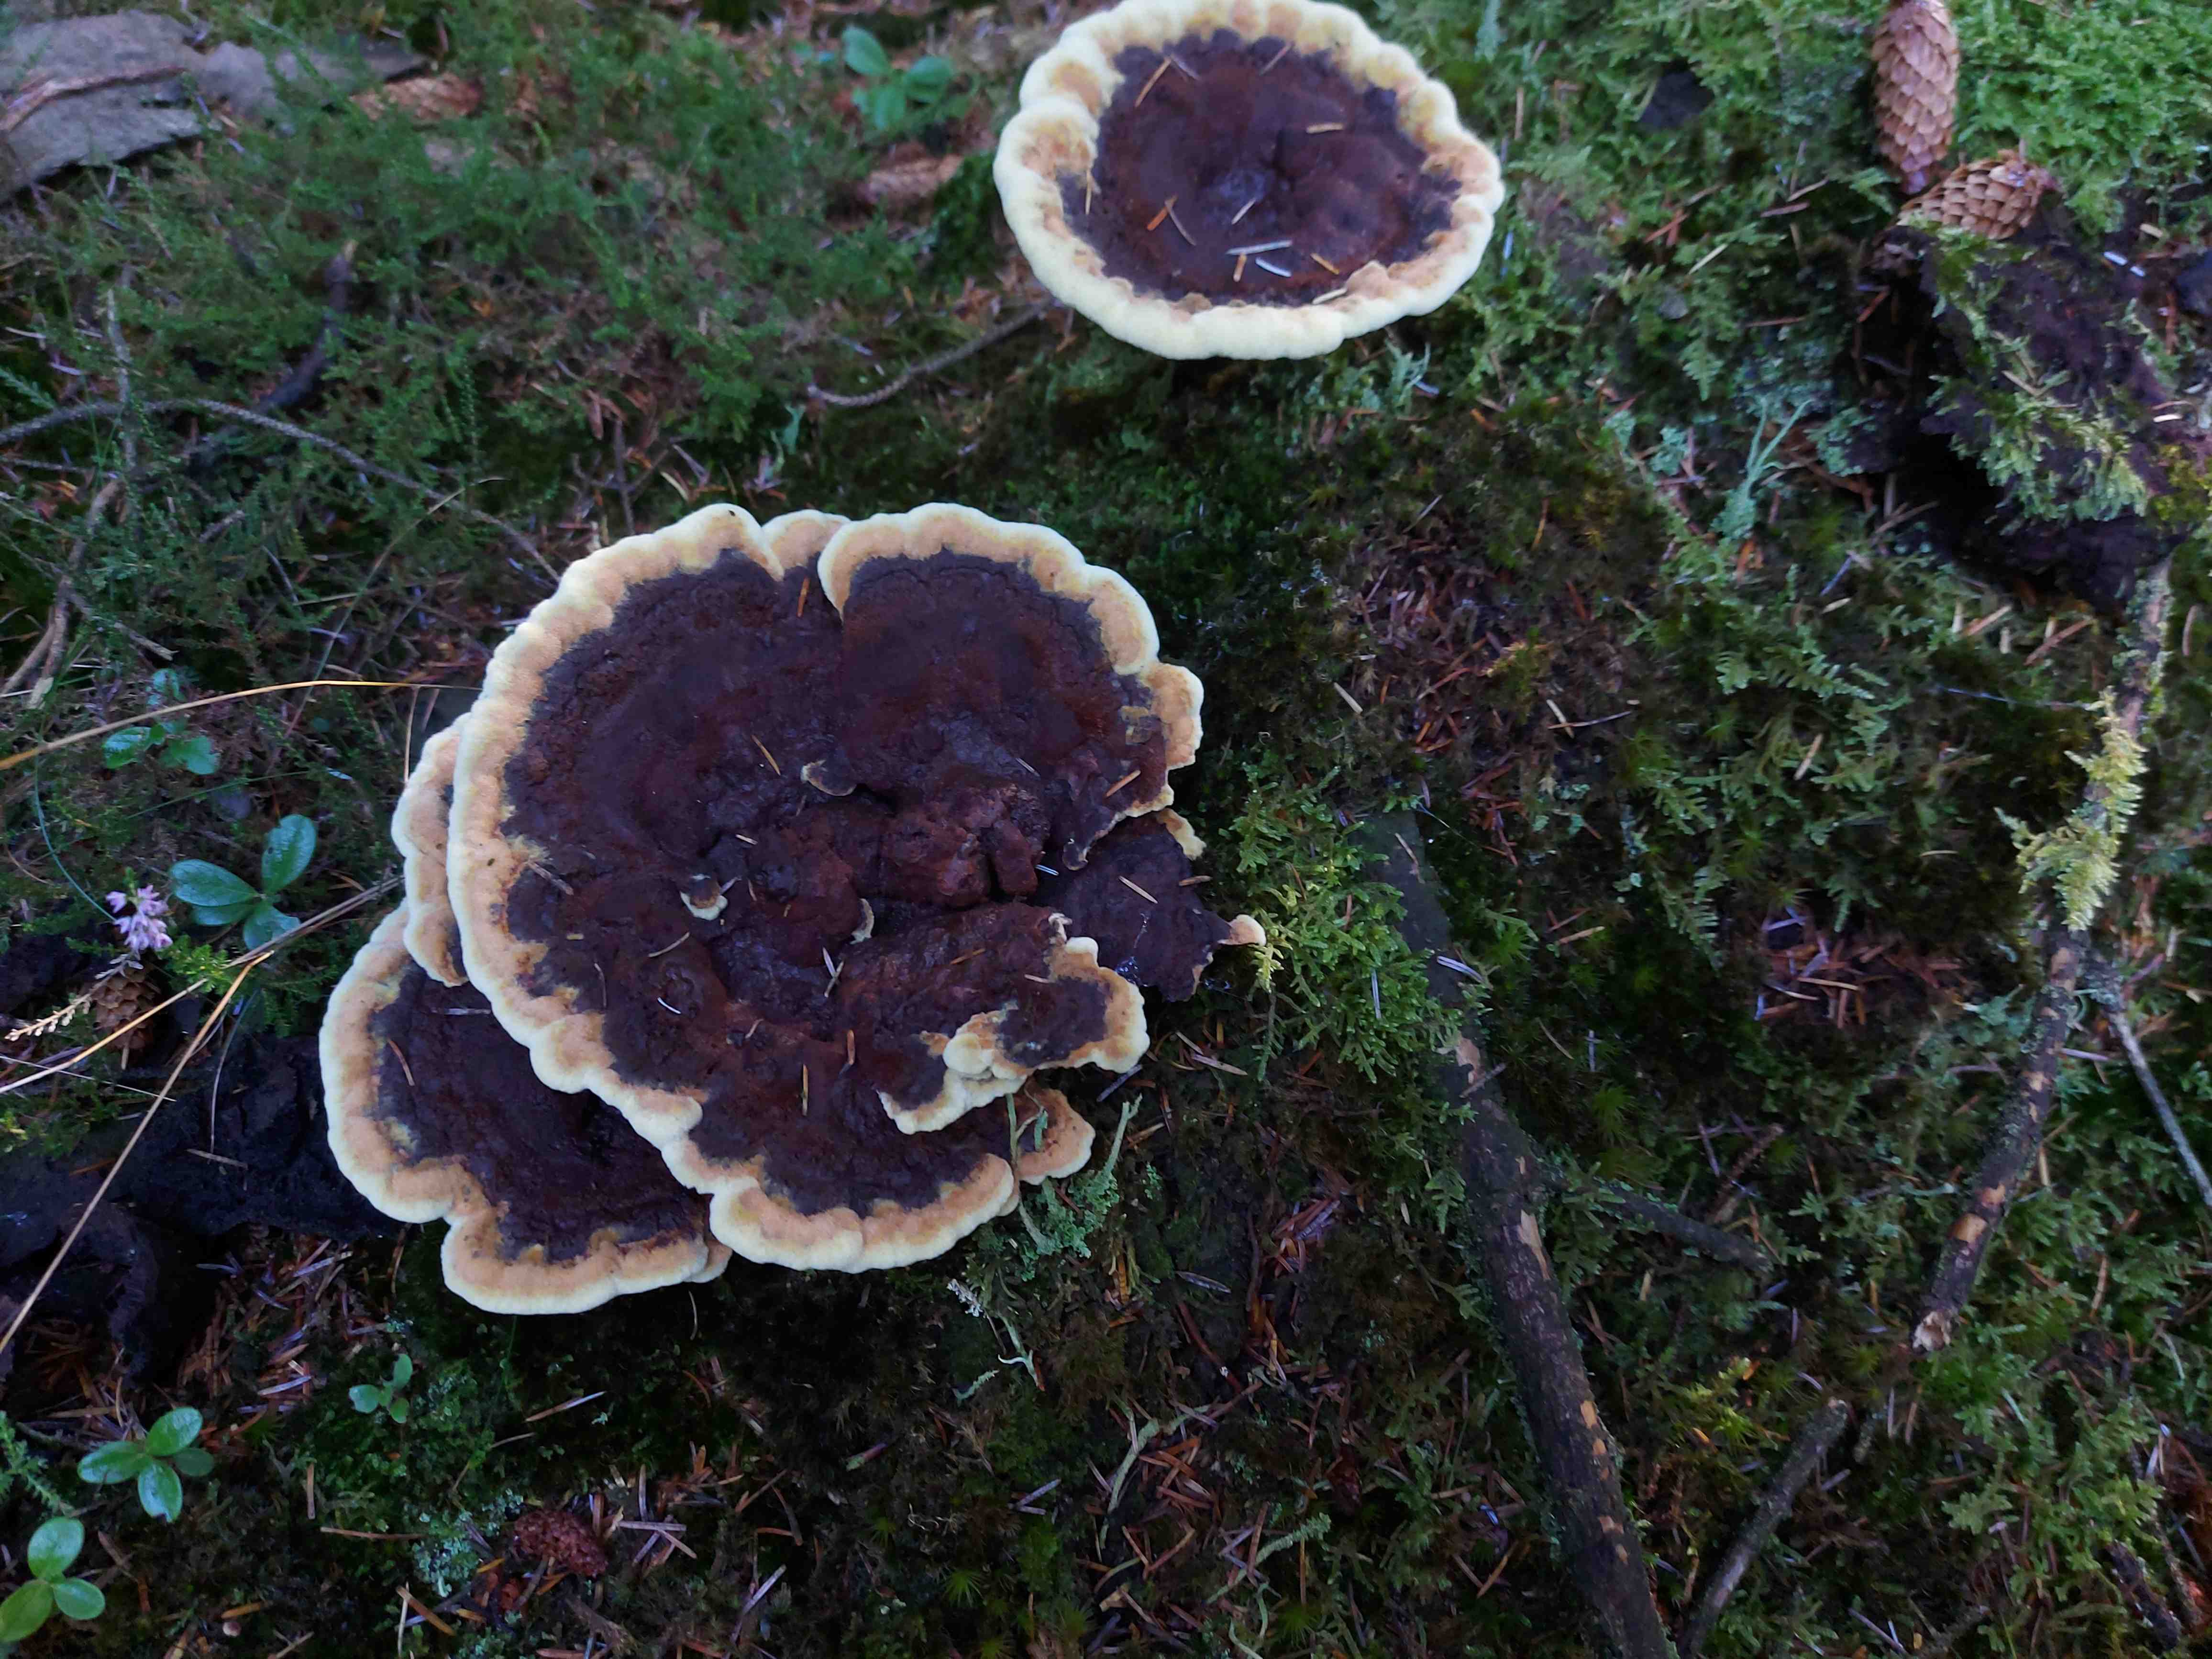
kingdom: Fungi
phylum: Basidiomycota
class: Agaricomycetes
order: Polyporales
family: Laetiporaceae
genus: Phaeolus
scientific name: Phaeolus schweinitzii
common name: brunporesvamp
